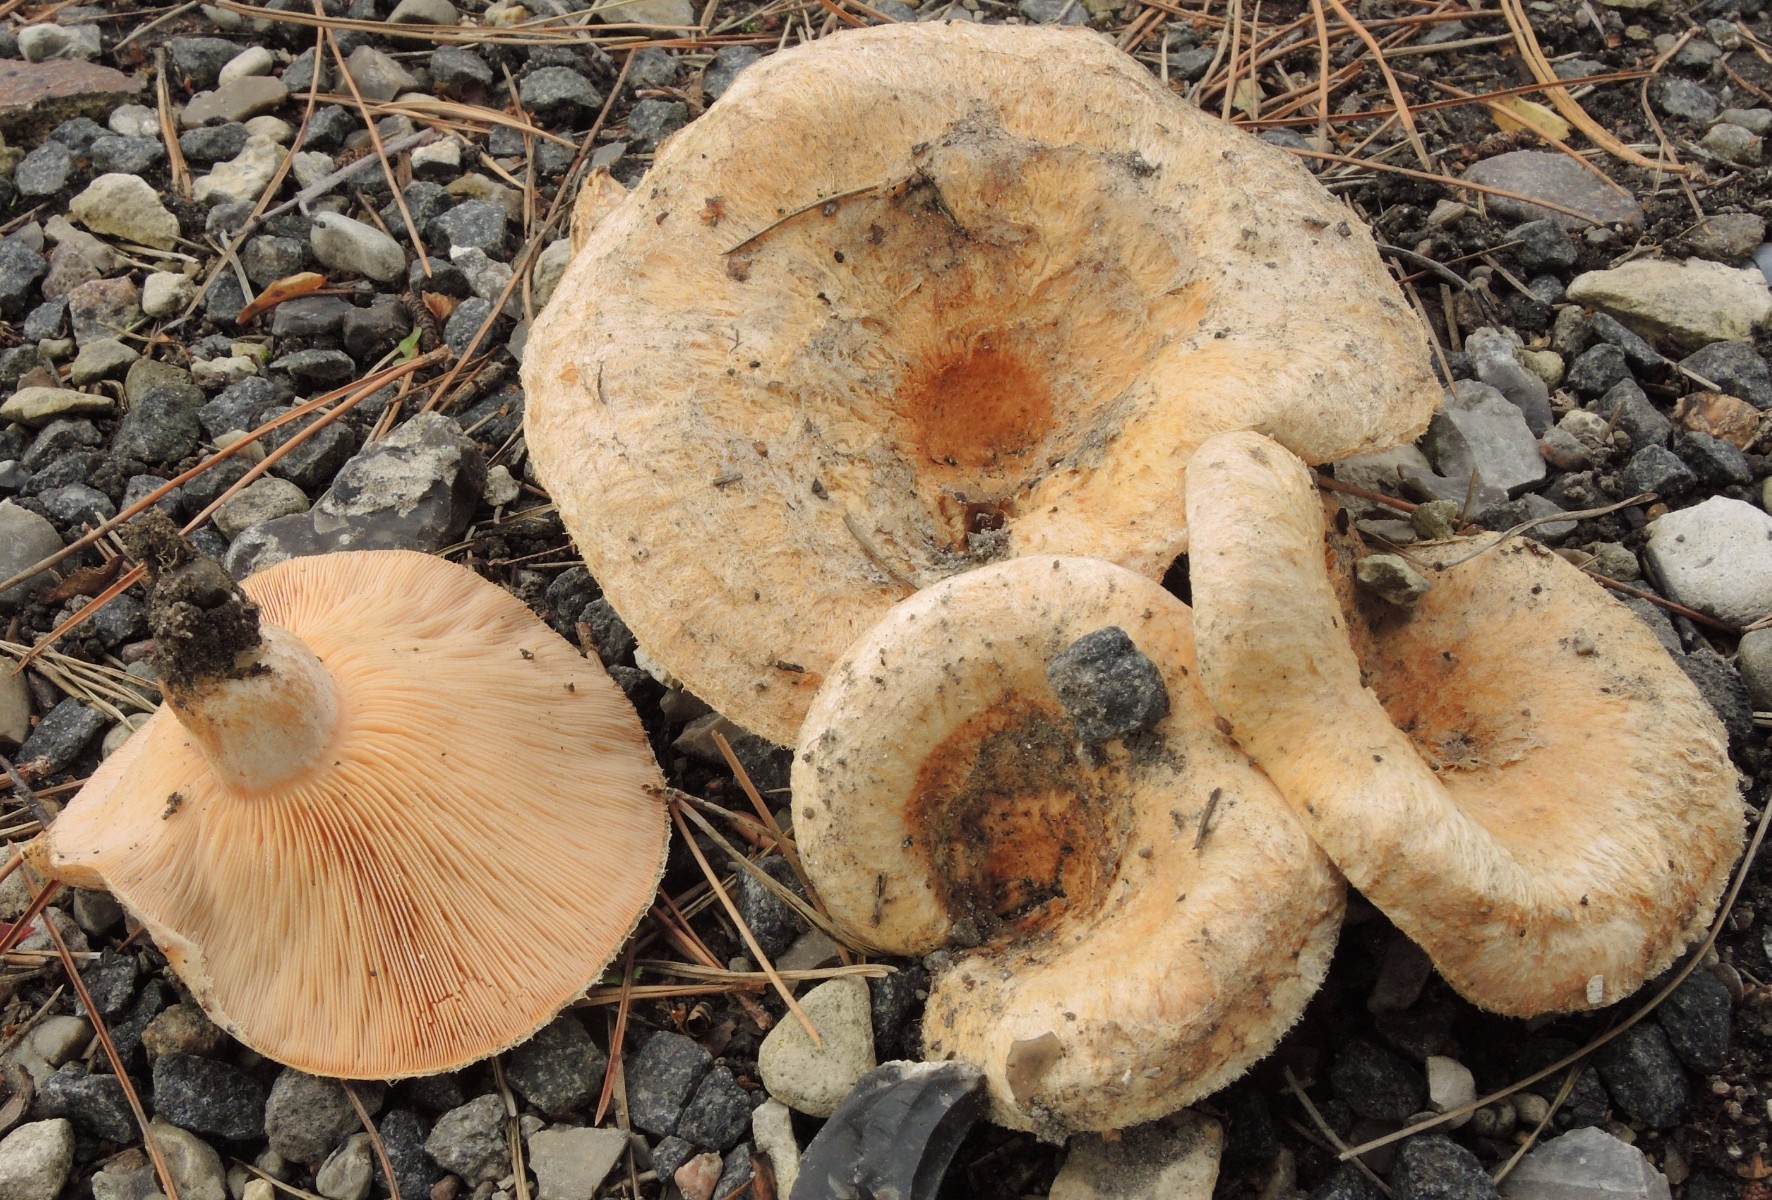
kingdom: Fungi
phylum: Basidiomycota
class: Agaricomycetes
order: Russulales
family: Russulaceae
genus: Lactarius
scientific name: Lactarius torminosus
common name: skægget mælkehat
